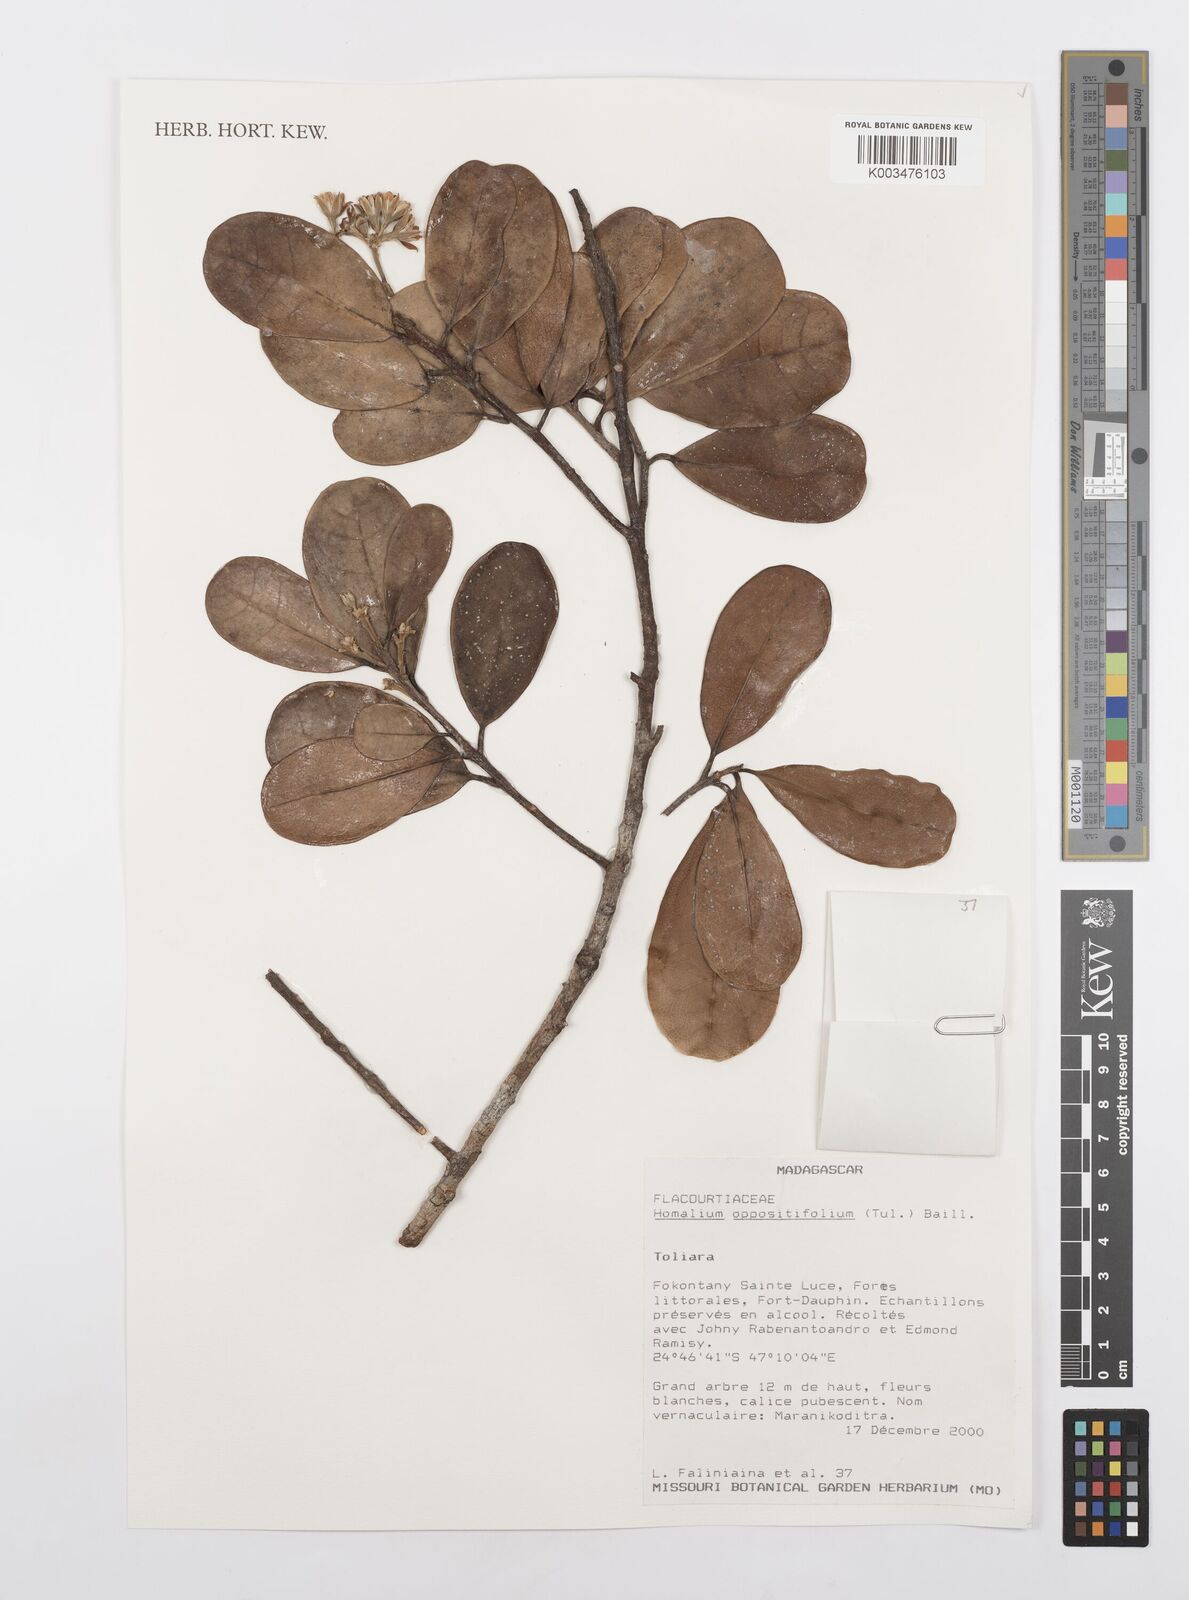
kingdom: Plantae
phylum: Tracheophyta
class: Magnoliopsida
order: Malpighiales
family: Salicaceae
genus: Homalium
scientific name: Homalium brevipedunculatum
